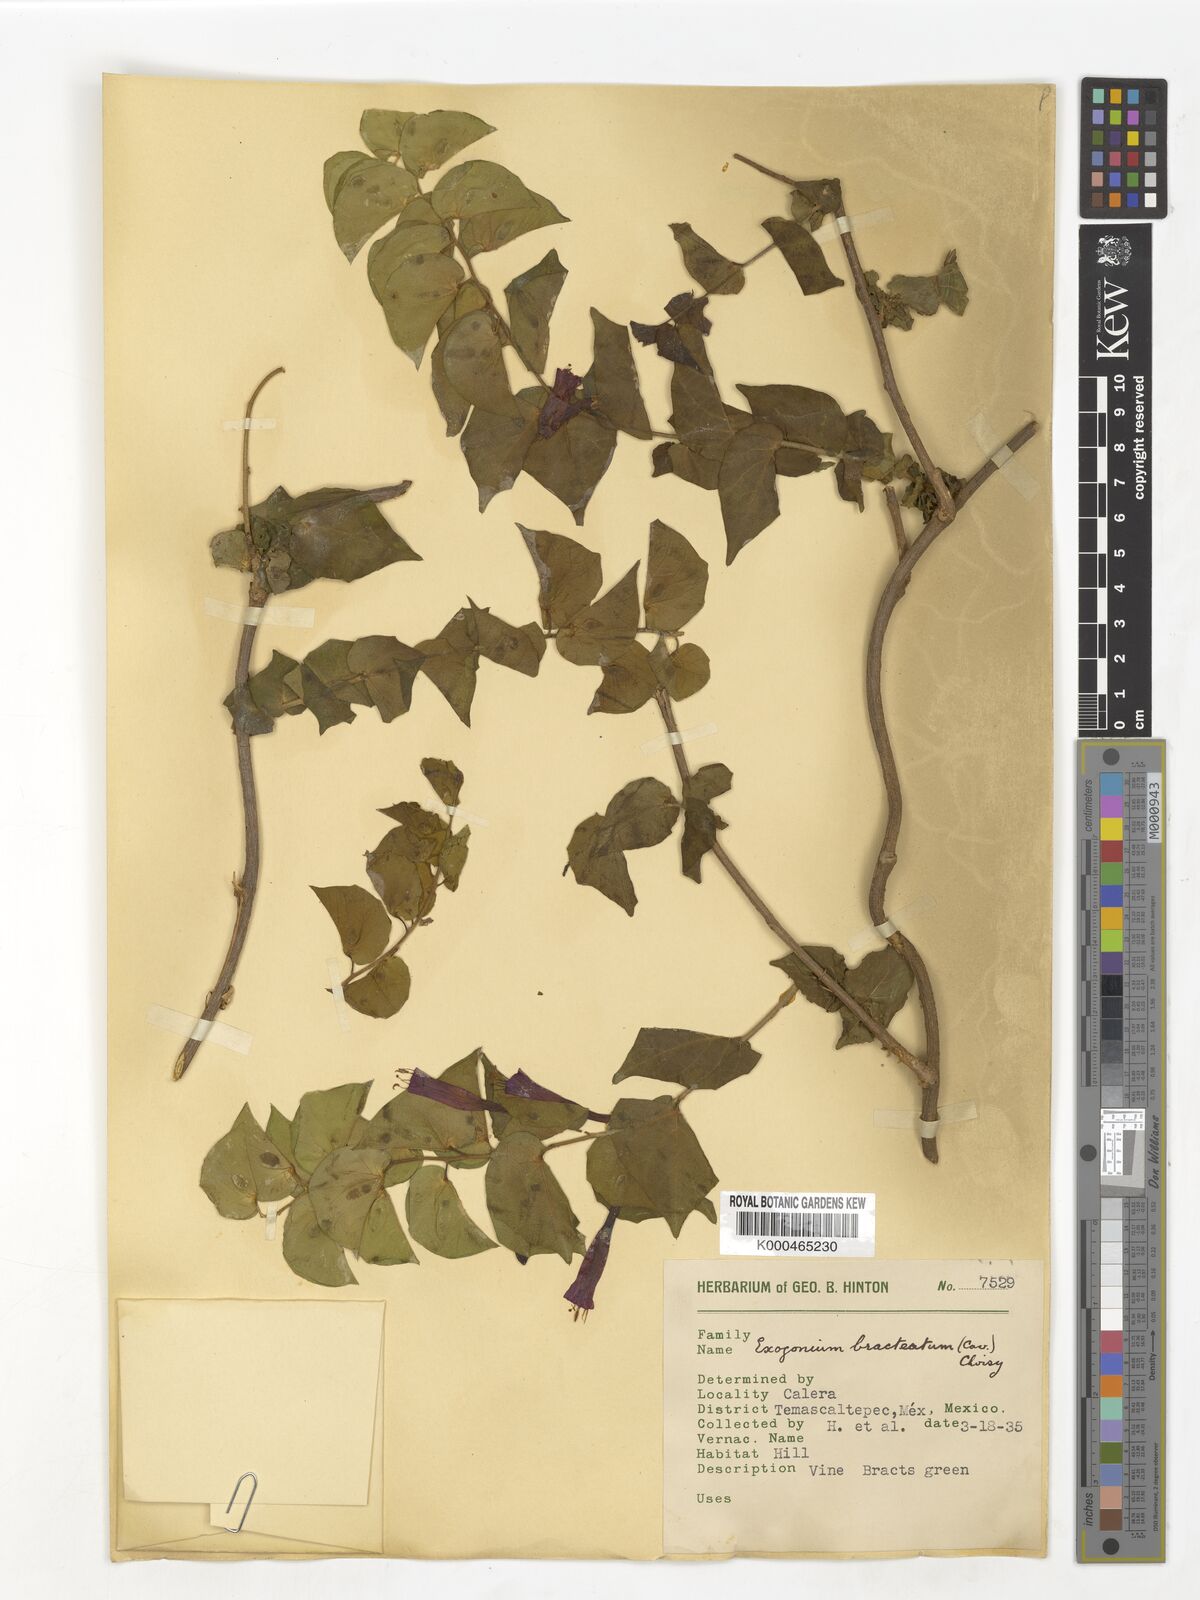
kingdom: Plantae
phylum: Tracheophyta
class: Magnoliopsida
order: Solanales
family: Convolvulaceae
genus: Ipomoea
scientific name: Ipomoea bracteata
